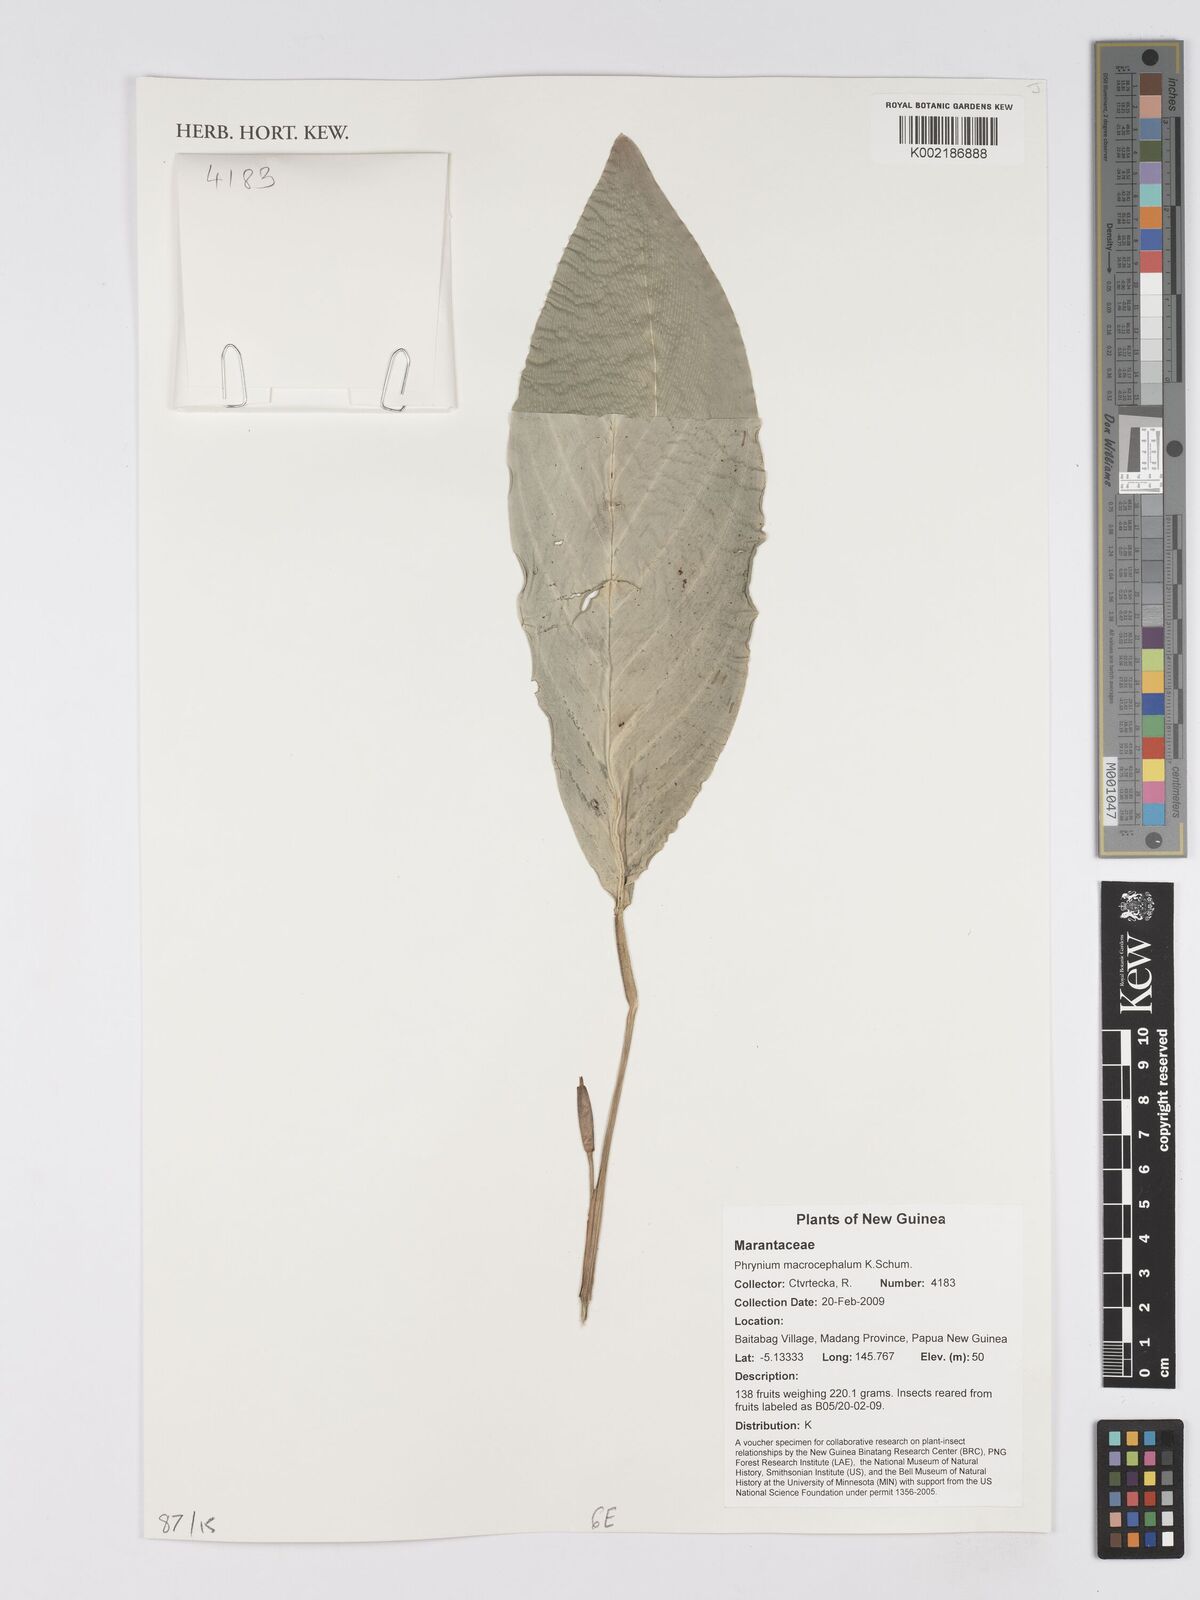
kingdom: Plantae
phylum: Tracheophyta
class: Liliopsida
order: Zingiberales
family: Marantaceae
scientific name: Marantaceae
